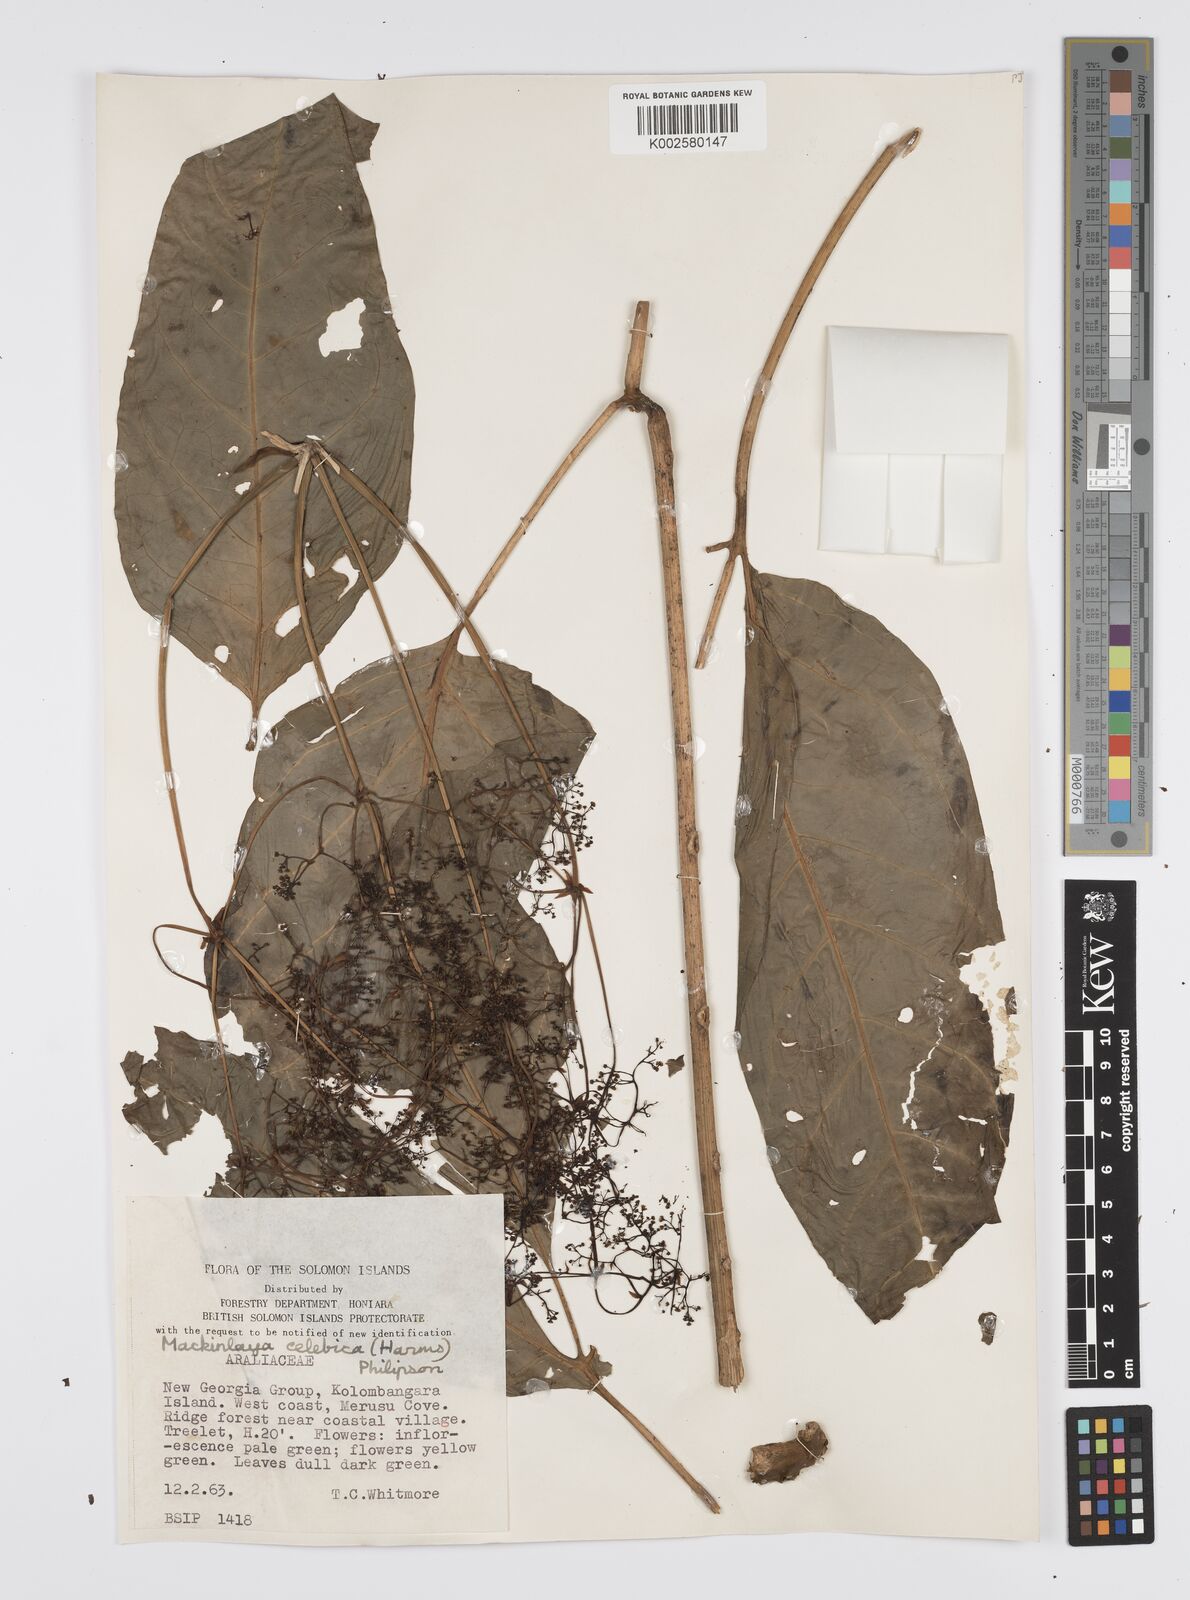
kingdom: Plantae
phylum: Tracheophyta
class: Magnoliopsida
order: Apiales
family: Apiaceae
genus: Mackinlaya
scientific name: Mackinlaya celebica
